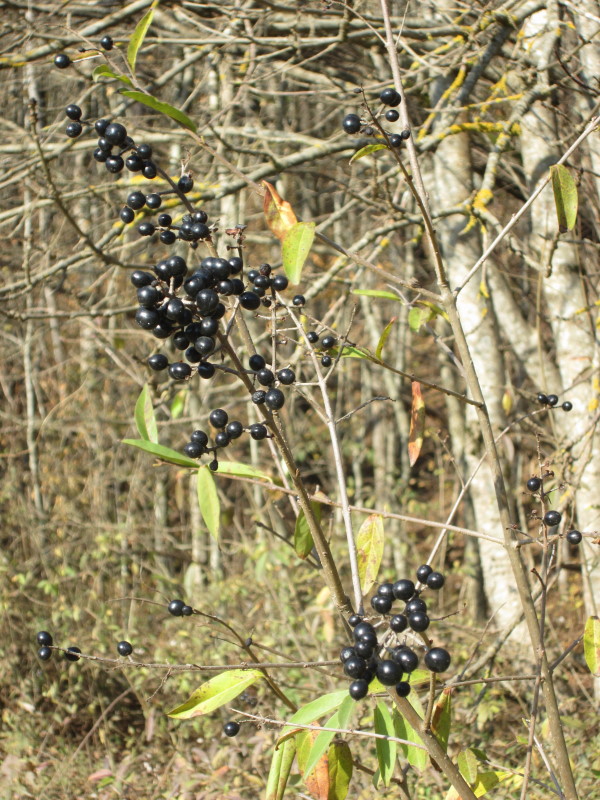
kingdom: Plantae
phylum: Tracheophyta
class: Magnoliopsida
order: Lamiales
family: Oleaceae
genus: Ligustrum
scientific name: Ligustrum vulgare
